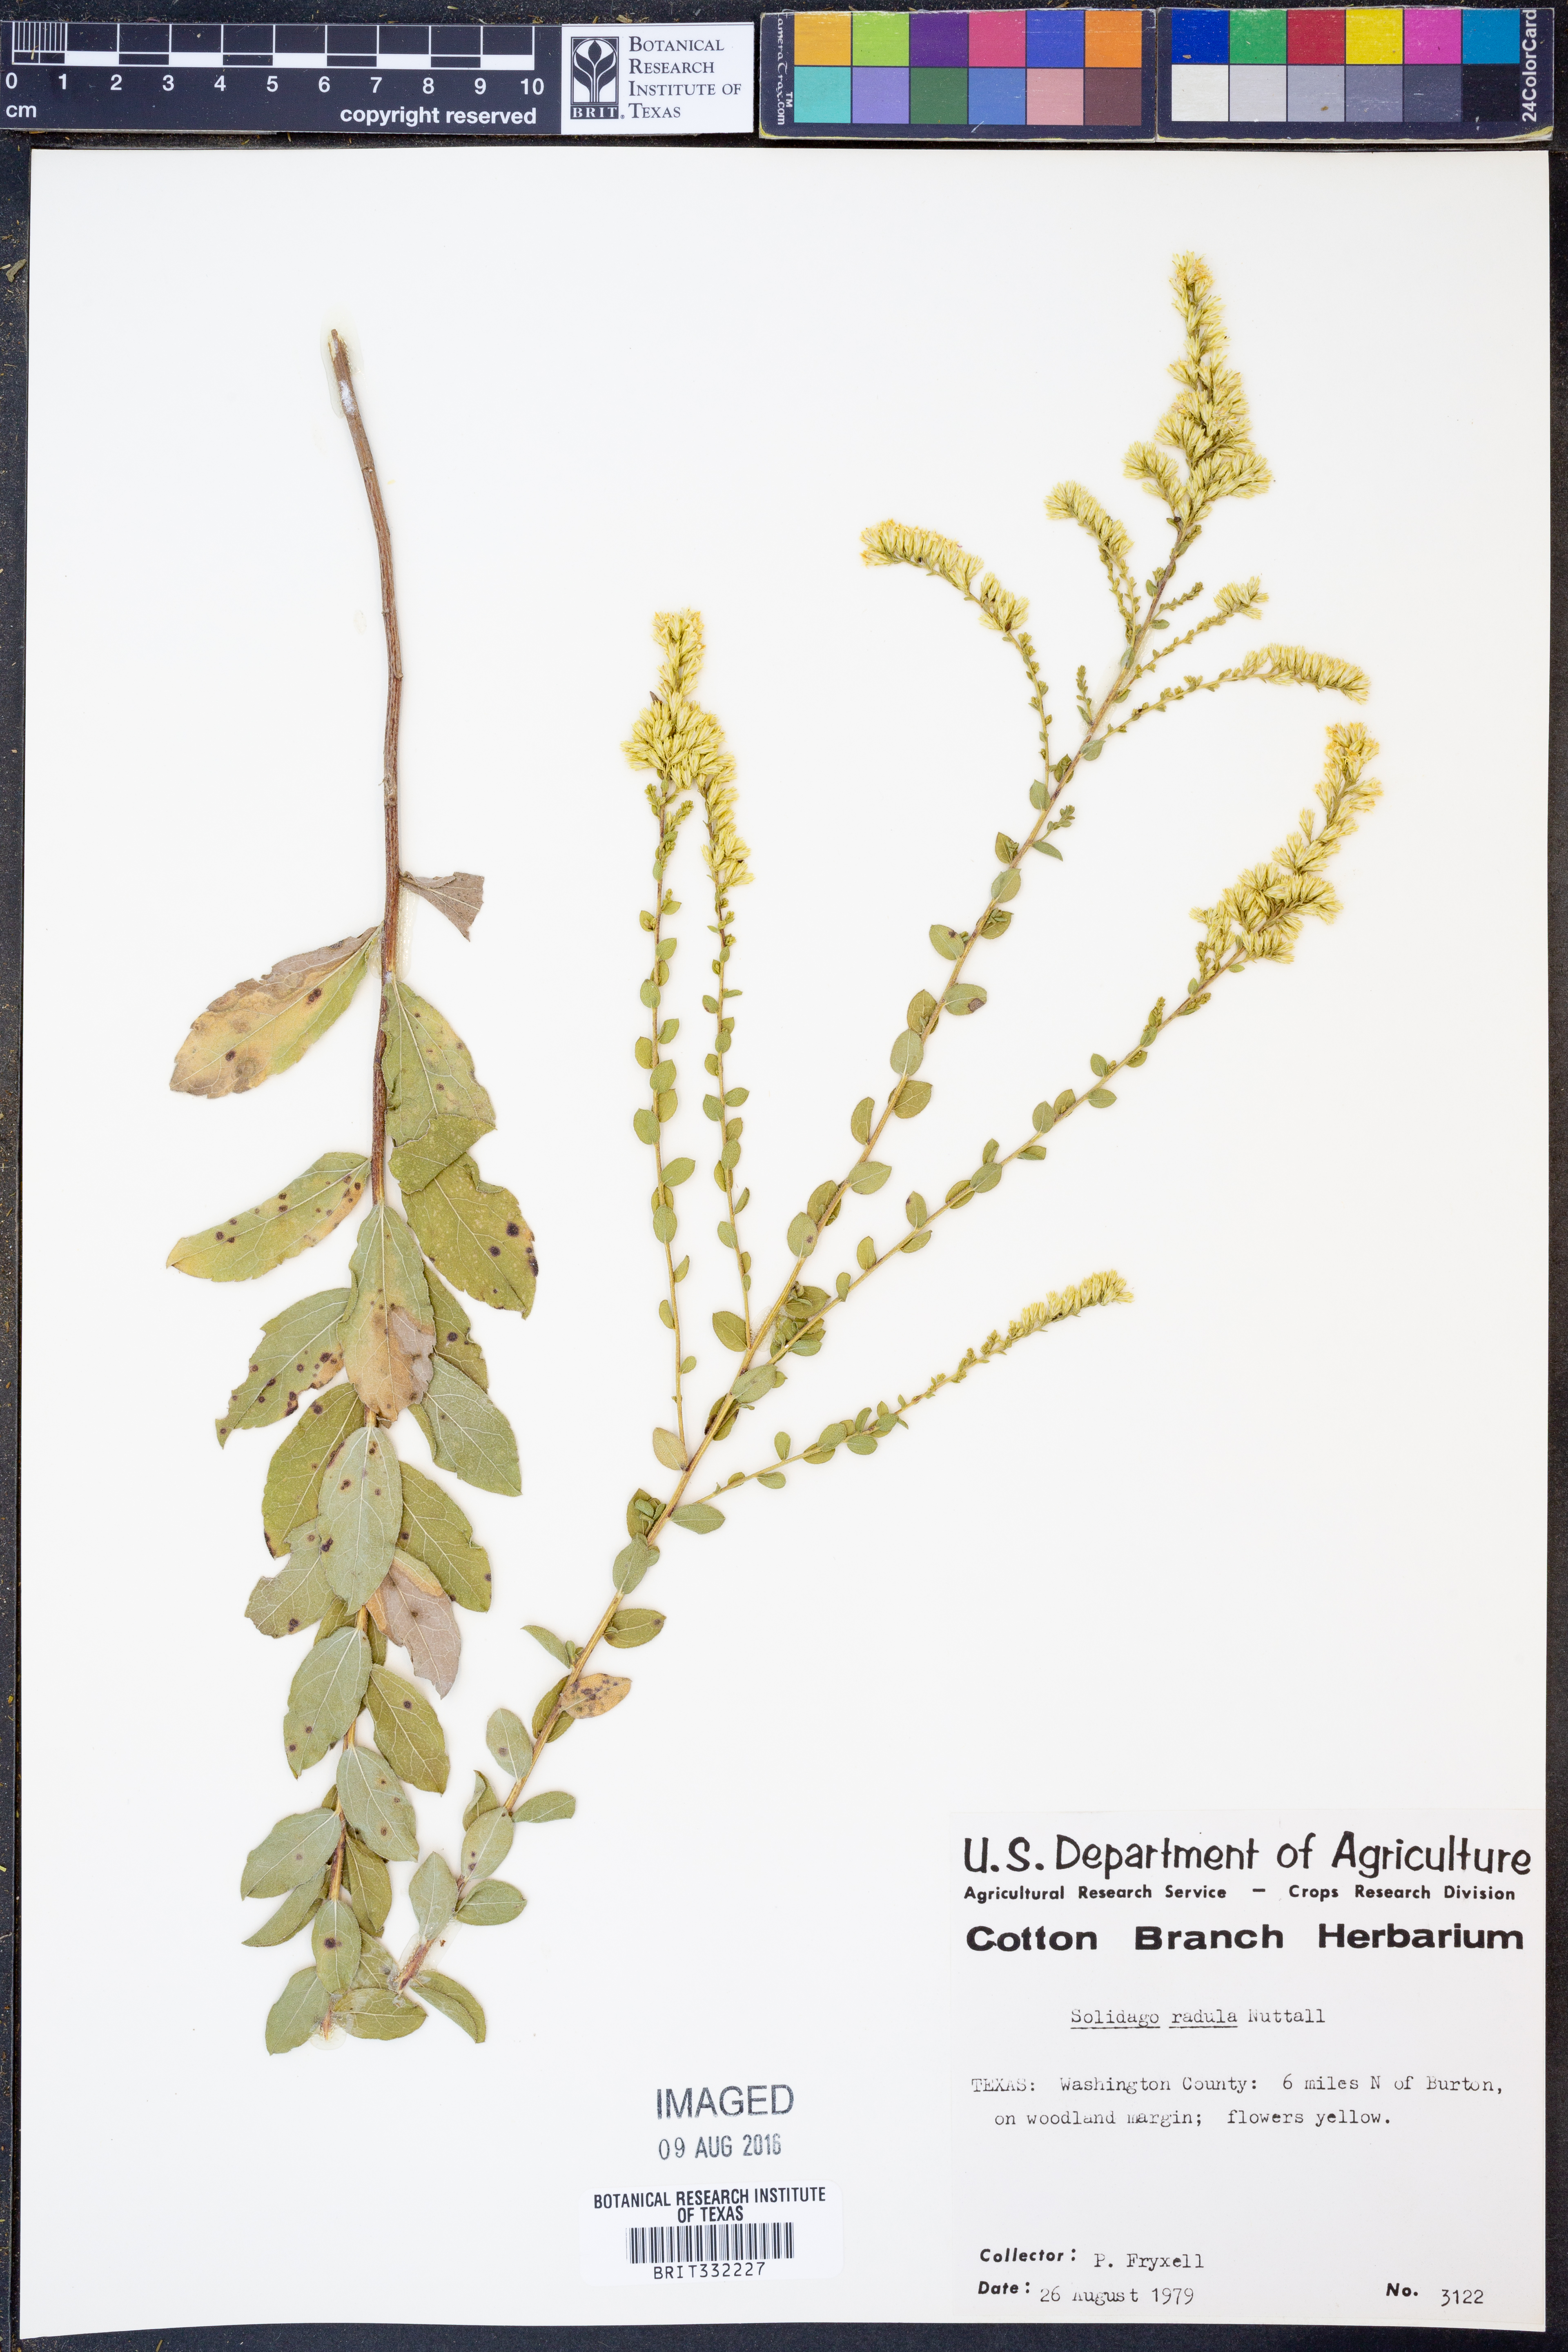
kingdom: Plantae
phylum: Tracheophyta
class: Magnoliopsida
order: Asterales
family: Asteraceae
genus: Solidago
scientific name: Solidago radula
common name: Western rough goldenrod
